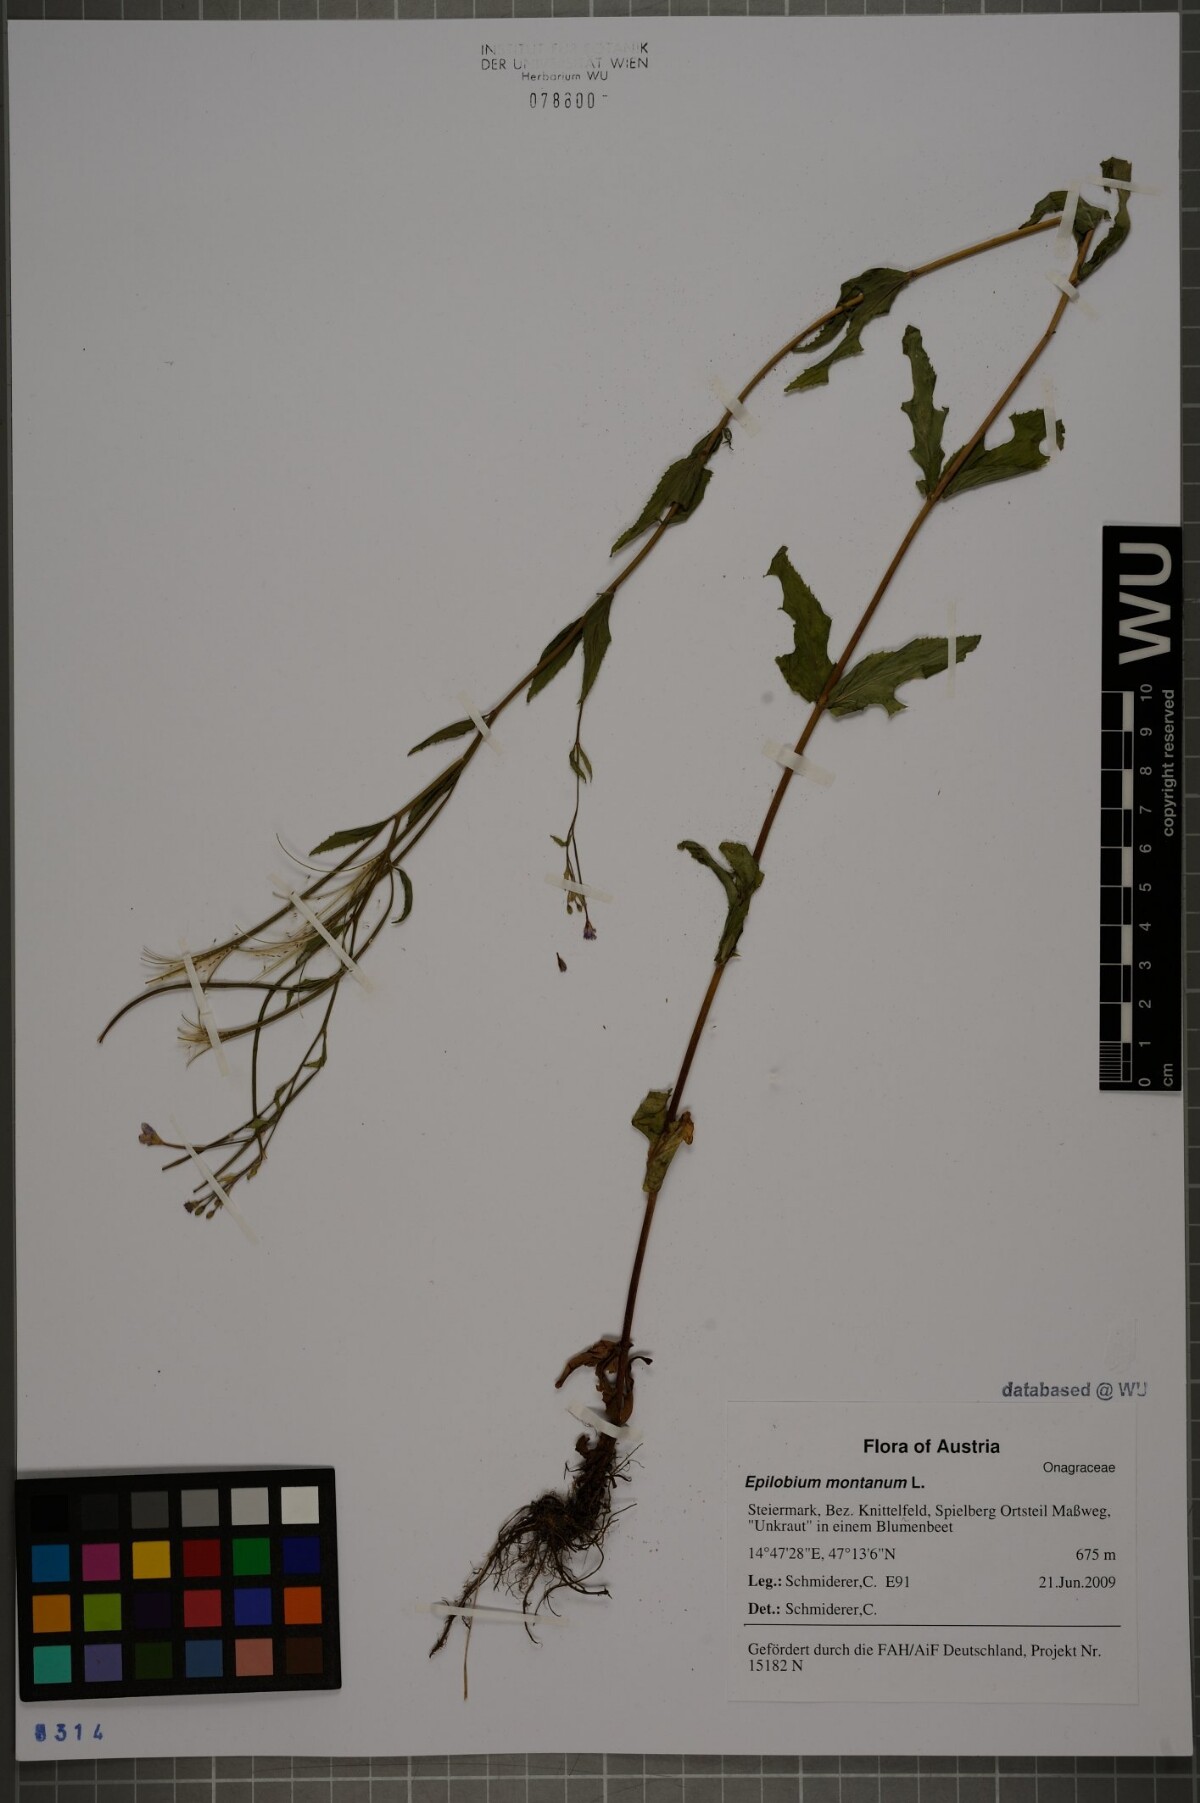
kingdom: Plantae
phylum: Tracheophyta
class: Magnoliopsida
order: Myrtales
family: Onagraceae
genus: Epilobium
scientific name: Epilobium montanum
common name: Broad-leaved willowherb
